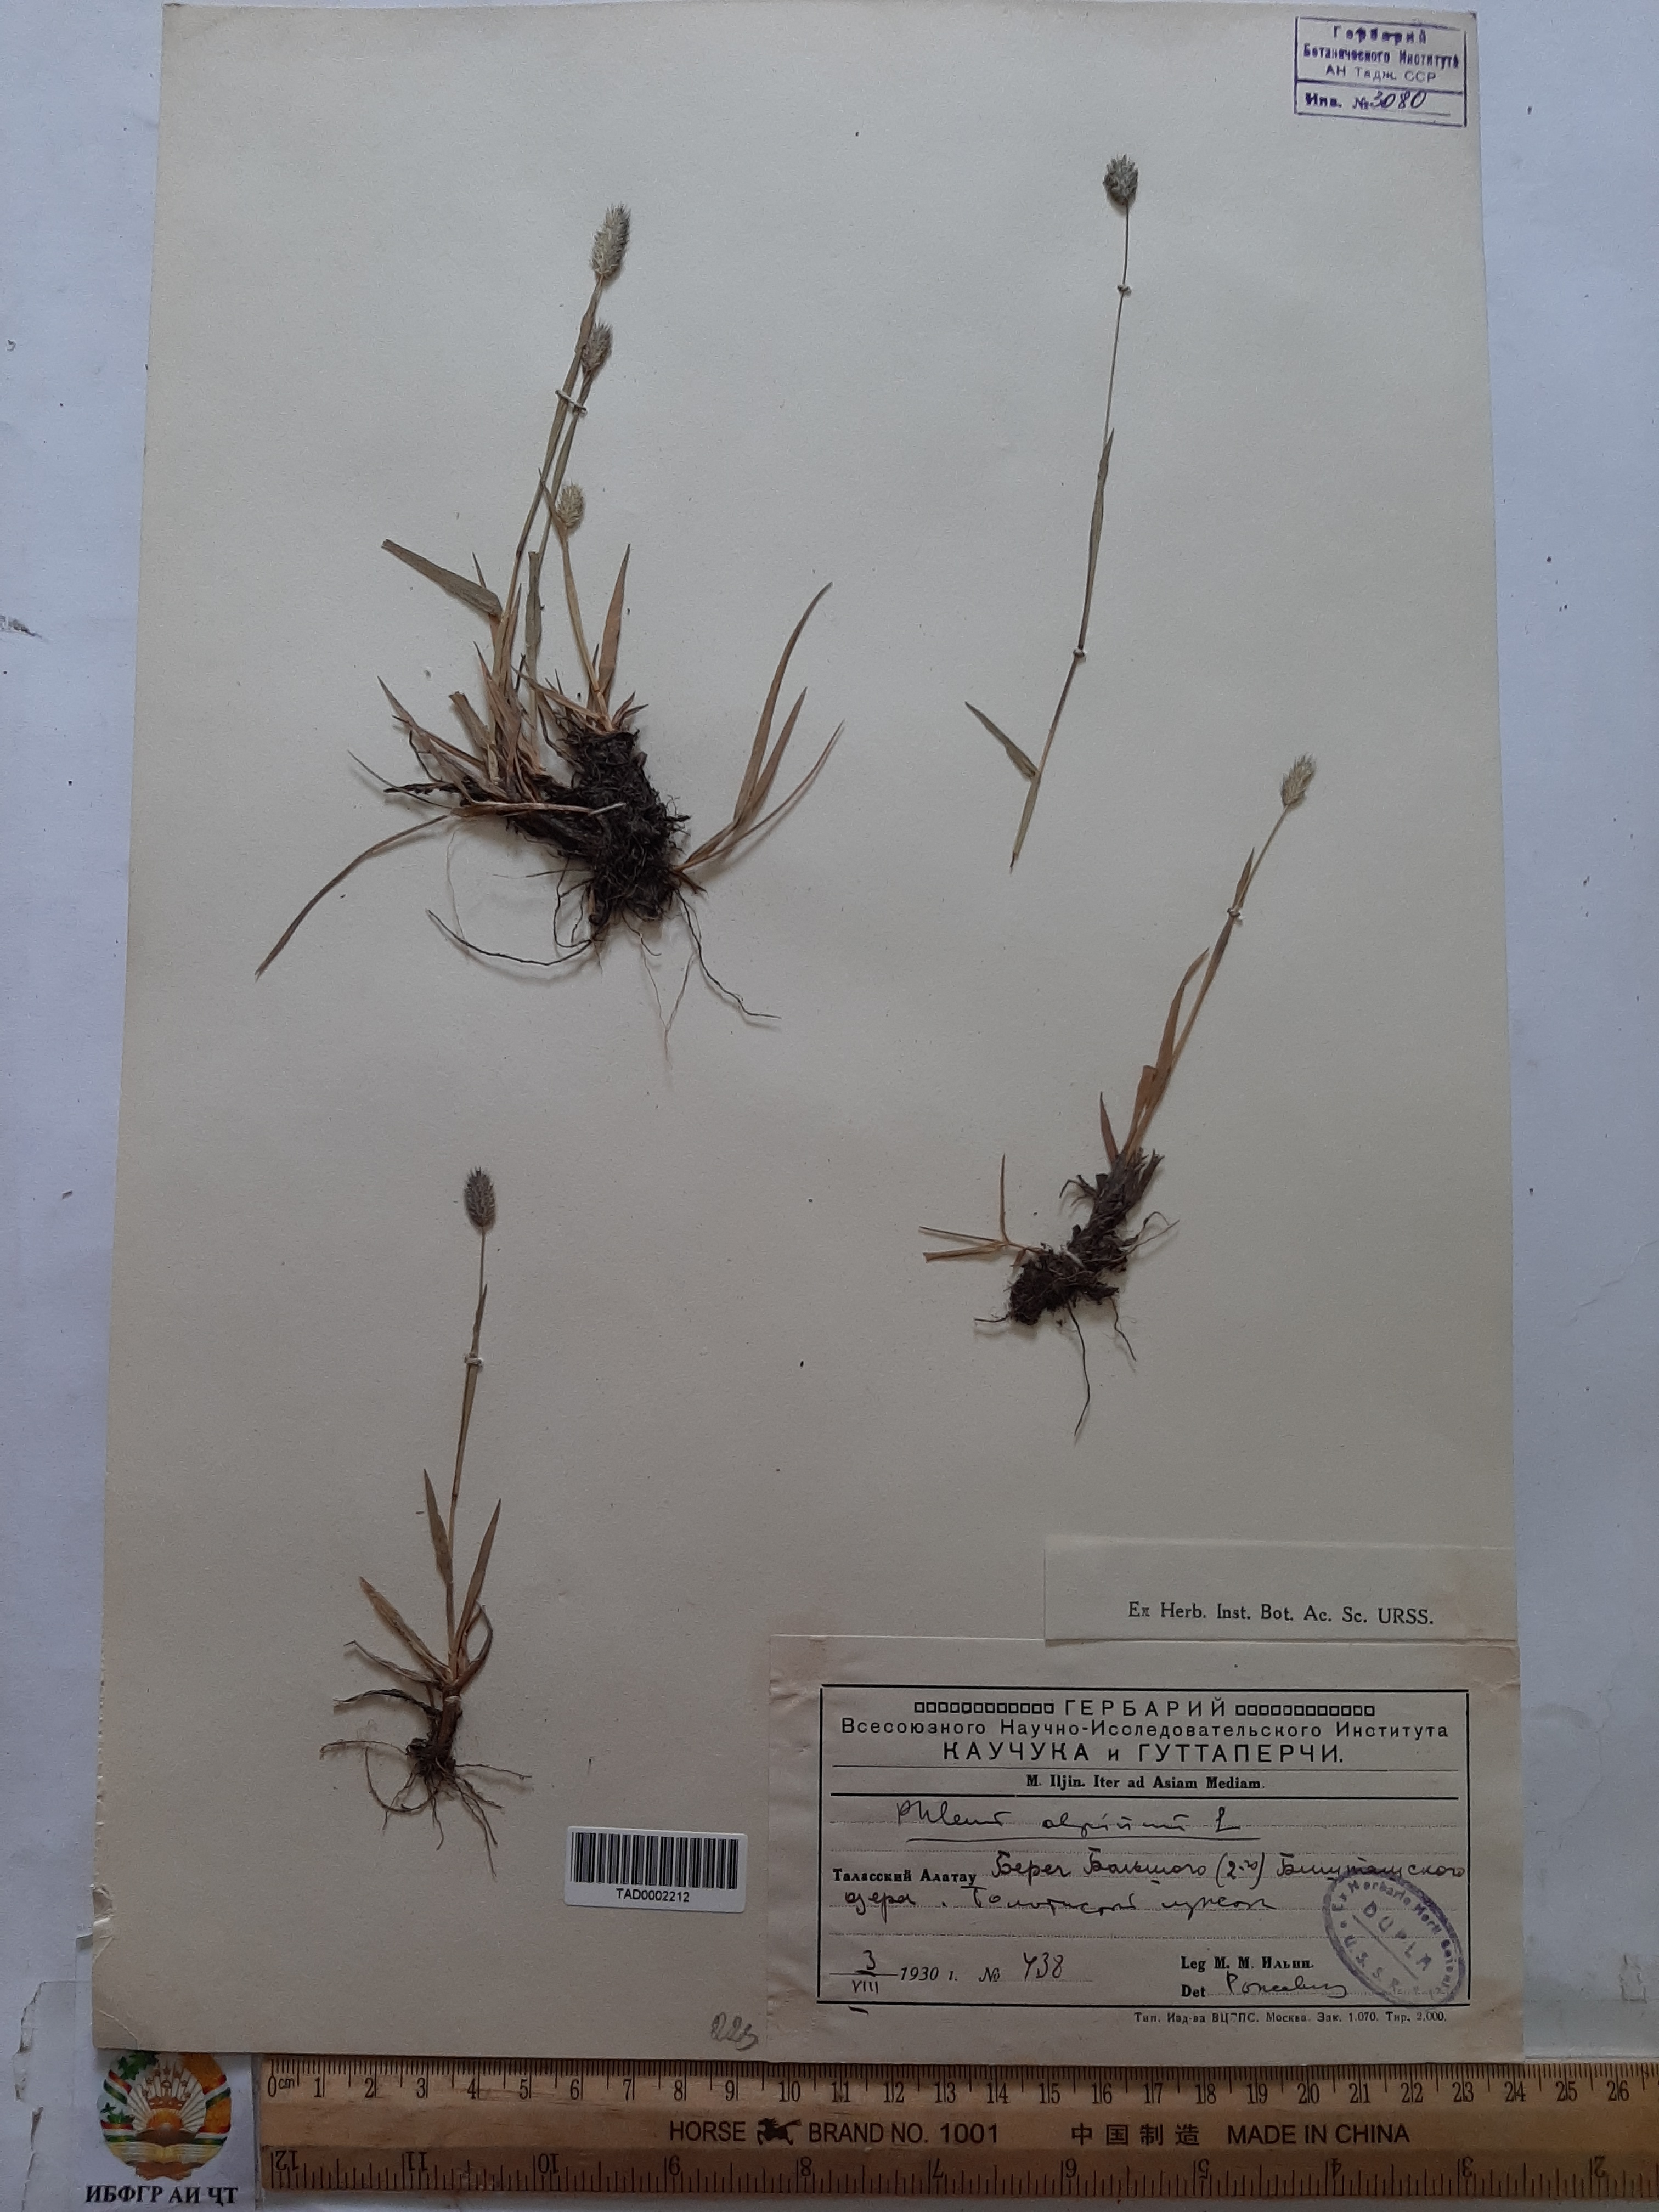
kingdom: Plantae
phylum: Tracheophyta
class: Liliopsida
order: Poales
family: Poaceae
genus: Phleum
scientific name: Phleum alpinum
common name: Alpine cat's-tail
